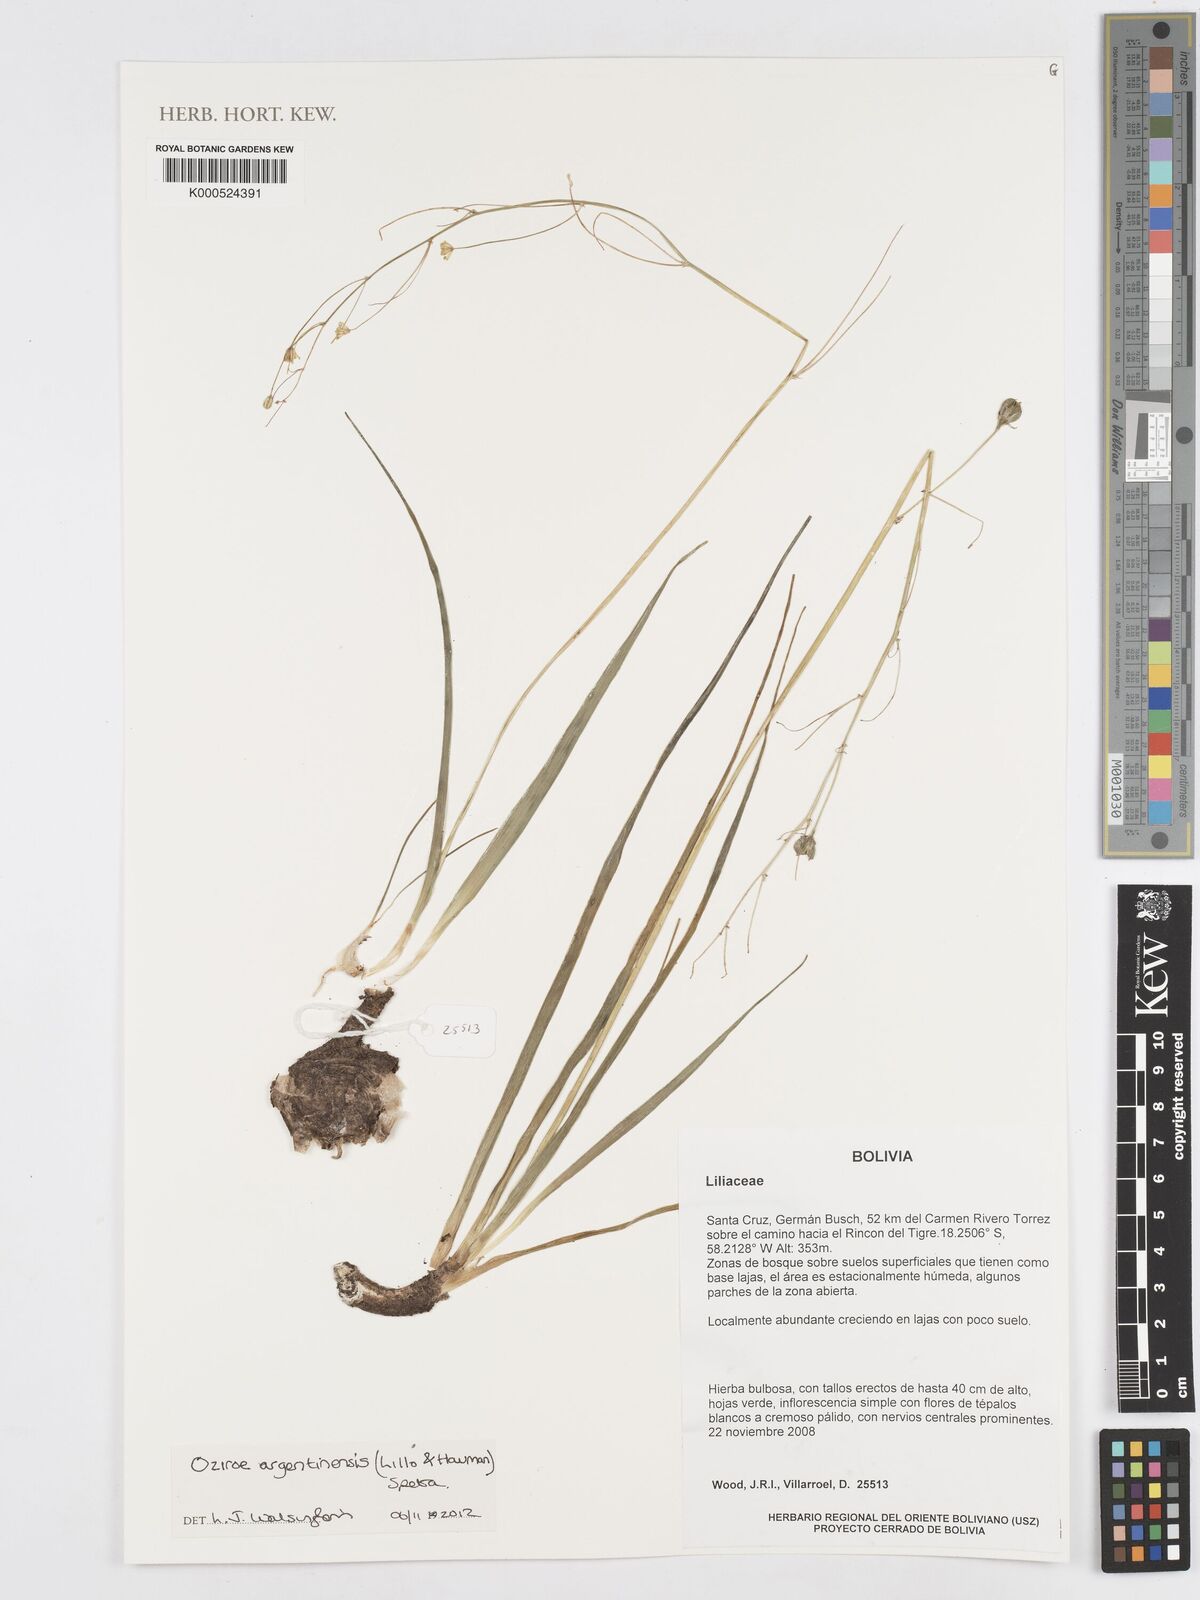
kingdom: Plantae
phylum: Tracheophyta
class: Liliopsida
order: Asparagales
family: Asparagaceae
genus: Oziroe
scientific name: Oziroe argentinensis
